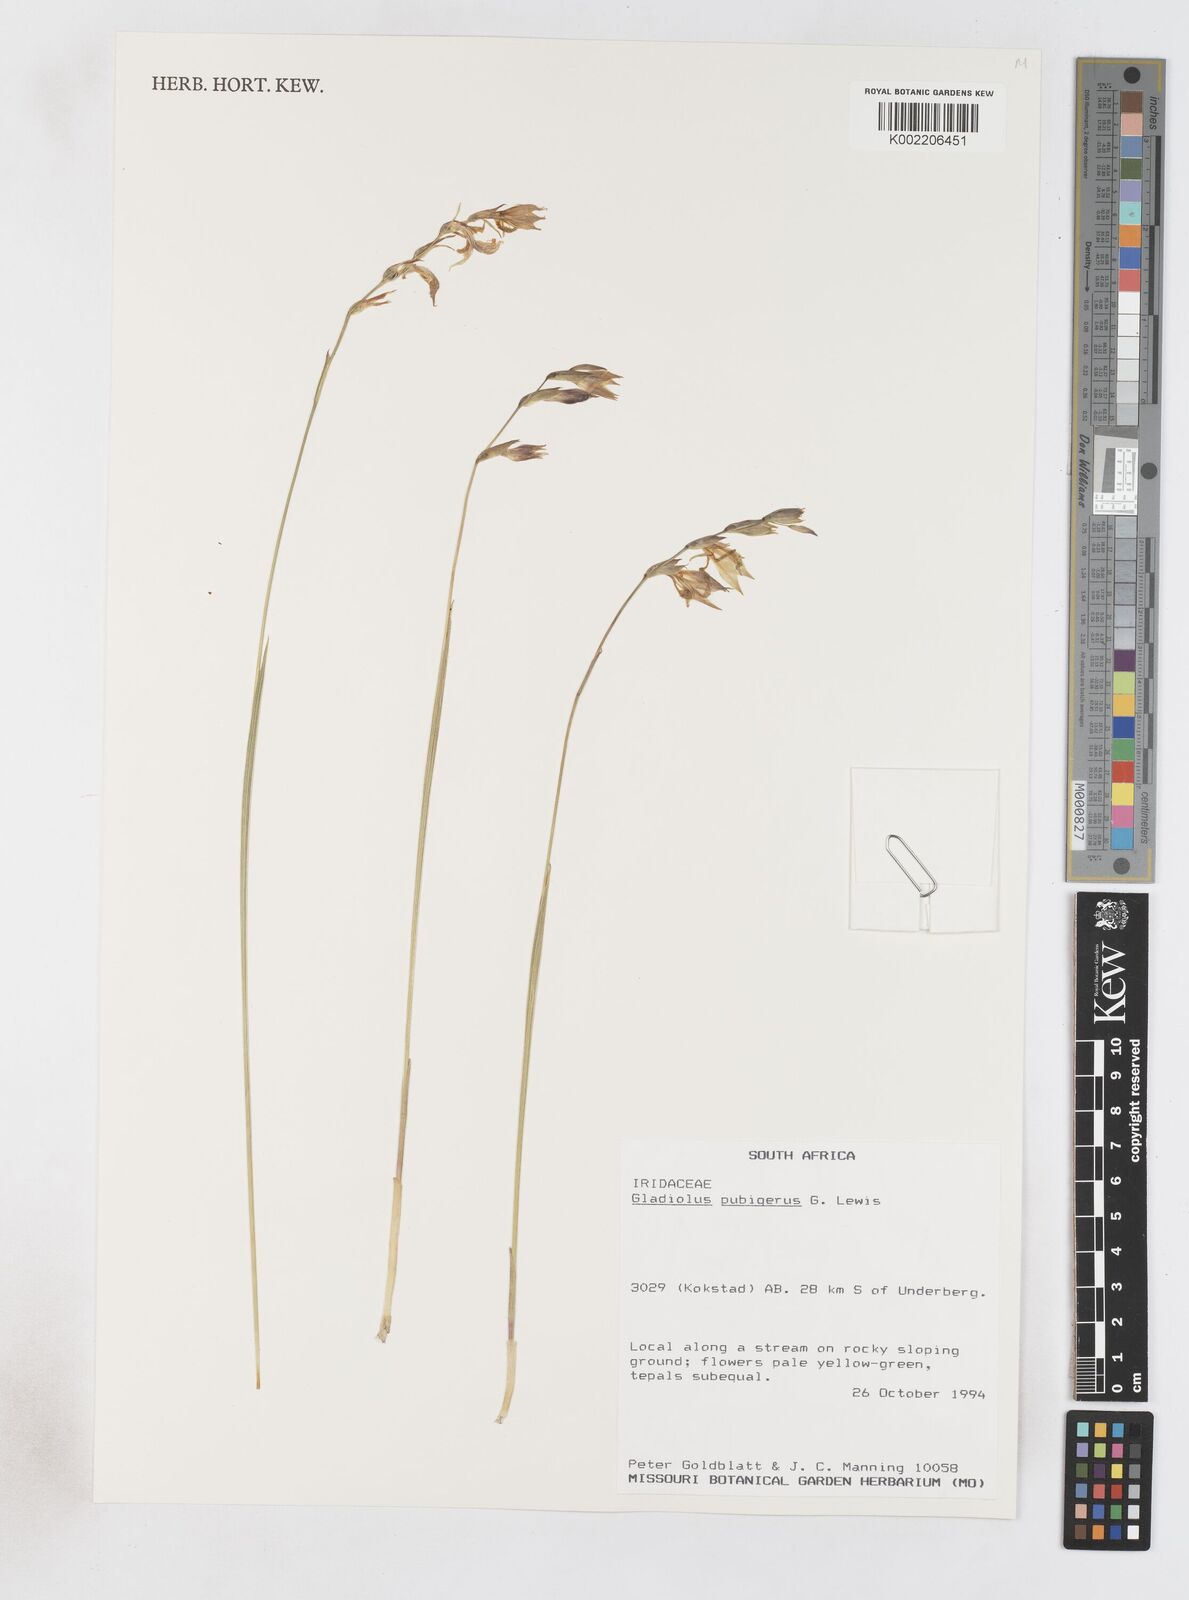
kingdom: Plantae
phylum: Tracheophyta
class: Liliopsida
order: Asparagales
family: Iridaceae
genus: Gladiolus
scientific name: Gladiolus parvulus
